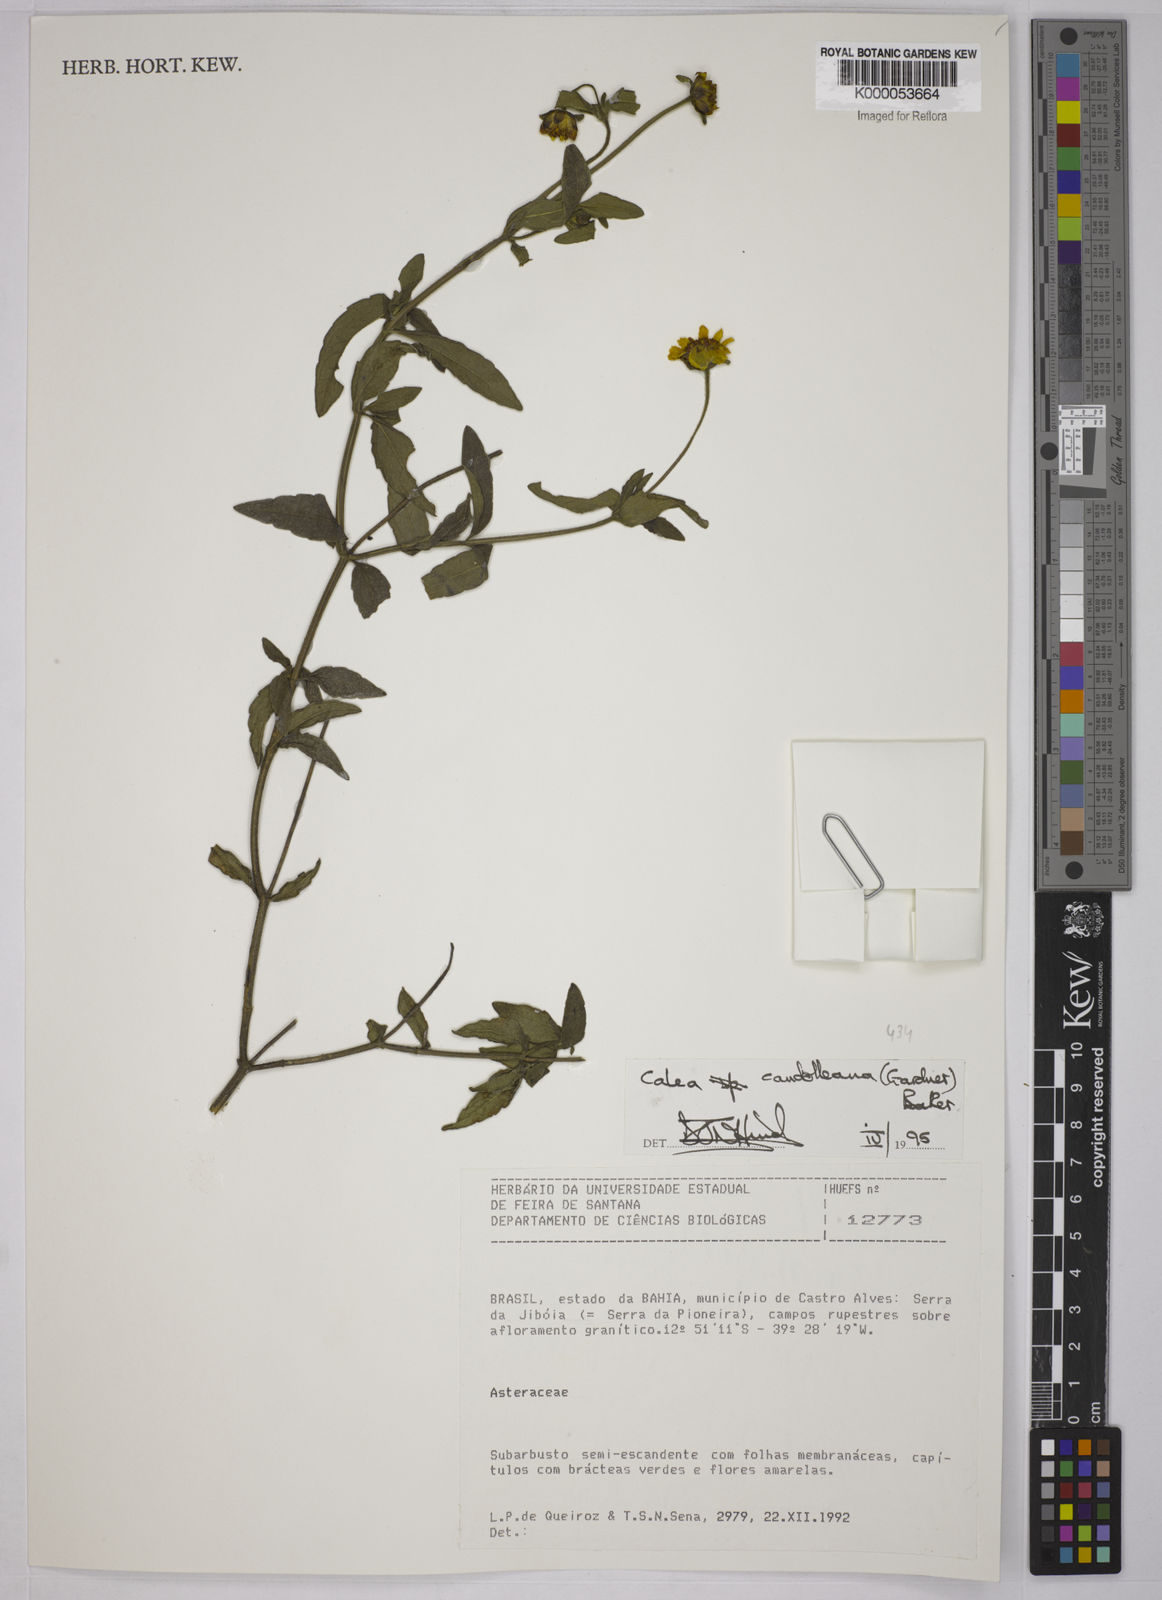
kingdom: Plantae
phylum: Tracheophyta
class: Magnoliopsida
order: Asterales
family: Asteraceae
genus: Calea
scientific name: Calea candolleana
